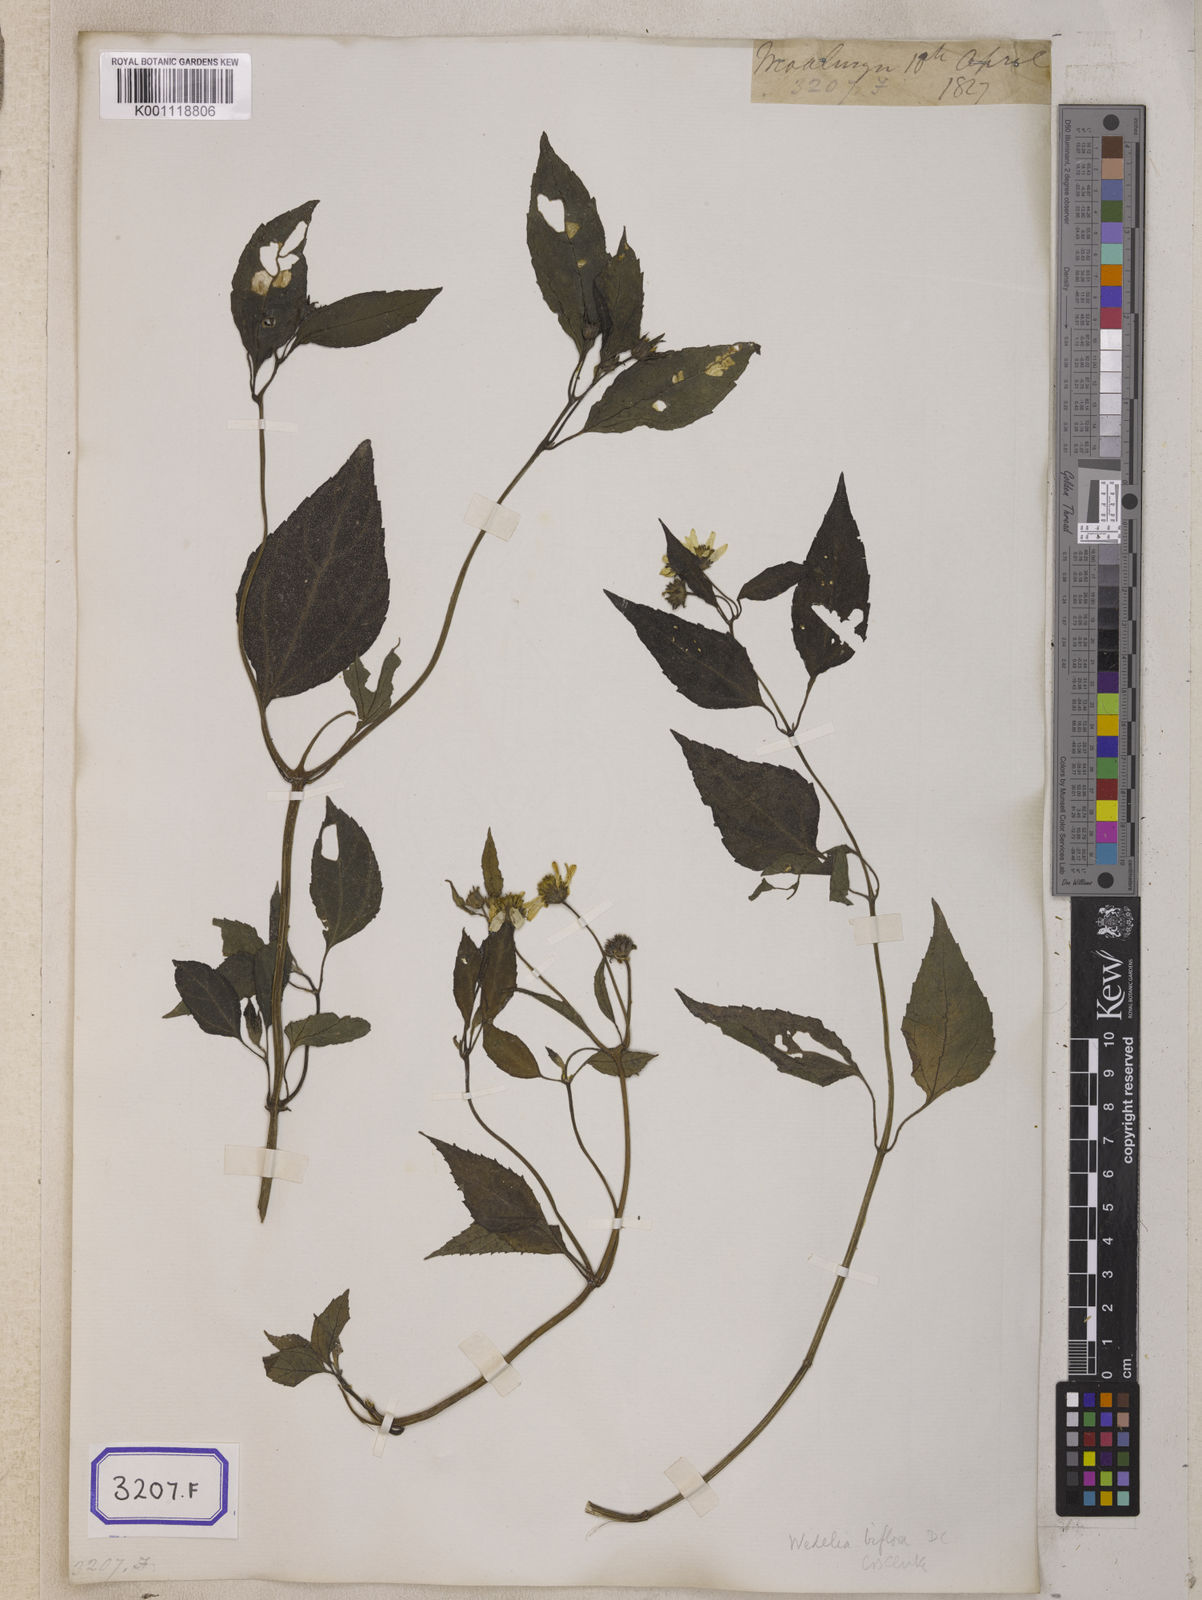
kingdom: Plantae
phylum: Tracheophyta
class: Magnoliopsida
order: Asterales
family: Asteraceae
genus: Indocypraea
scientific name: Indocypraea montana
